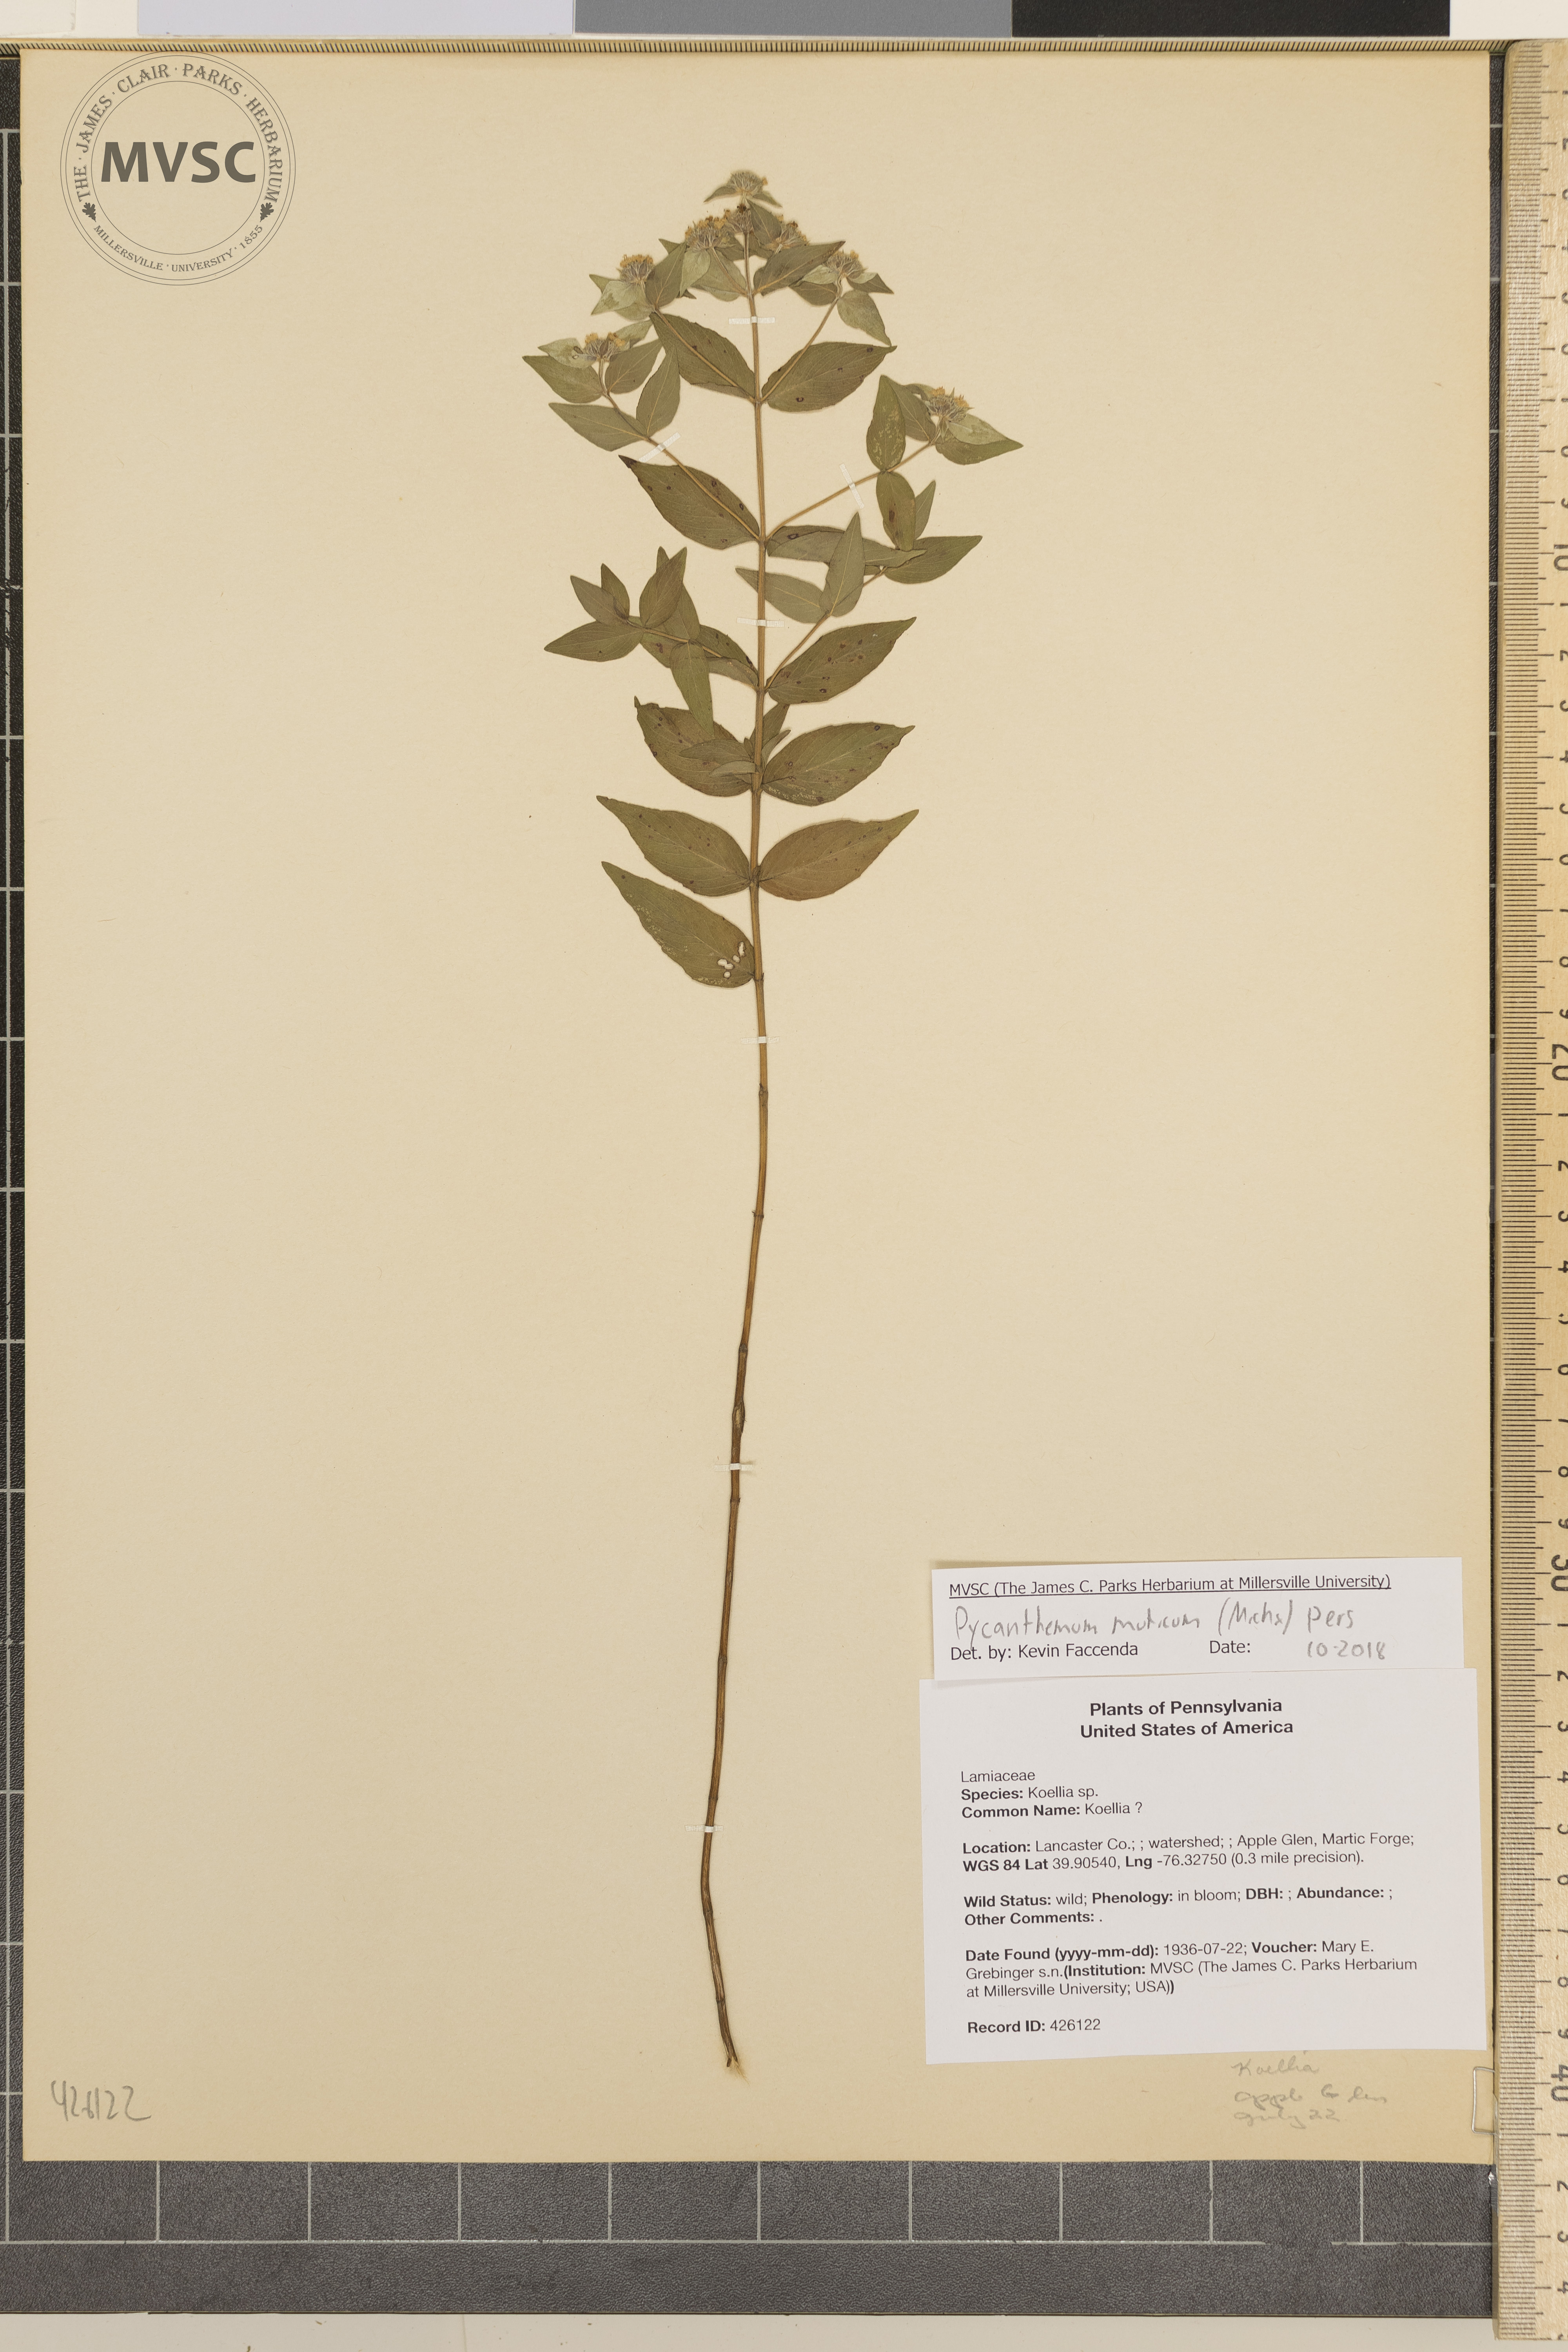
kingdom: Plantae
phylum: Tracheophyta
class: Magnoliopsida
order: Lamiales
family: Lamiaceae
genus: Pycnanthemum
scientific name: Pycnanthemum muticum
